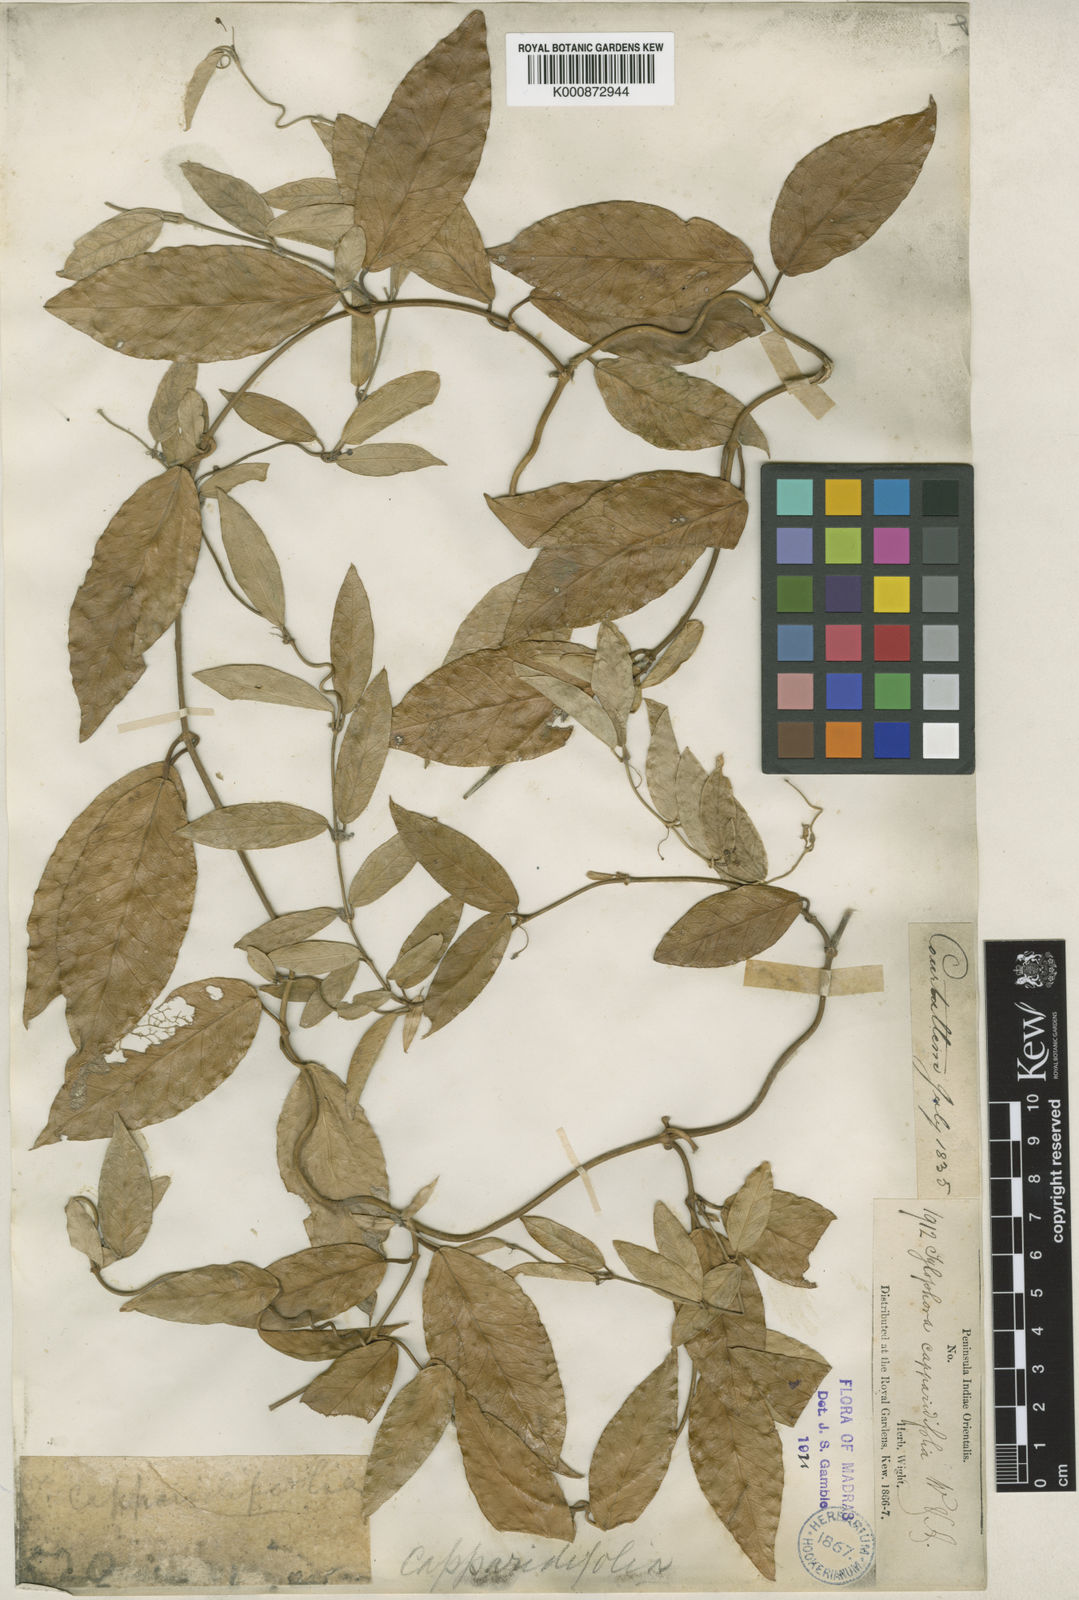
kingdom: Plantae
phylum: Tracheophyta
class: Magnoliopsida
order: Gentianales
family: Apocynaceae
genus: Vincetoxicum
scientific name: Vincetoxicum capparidifolium
